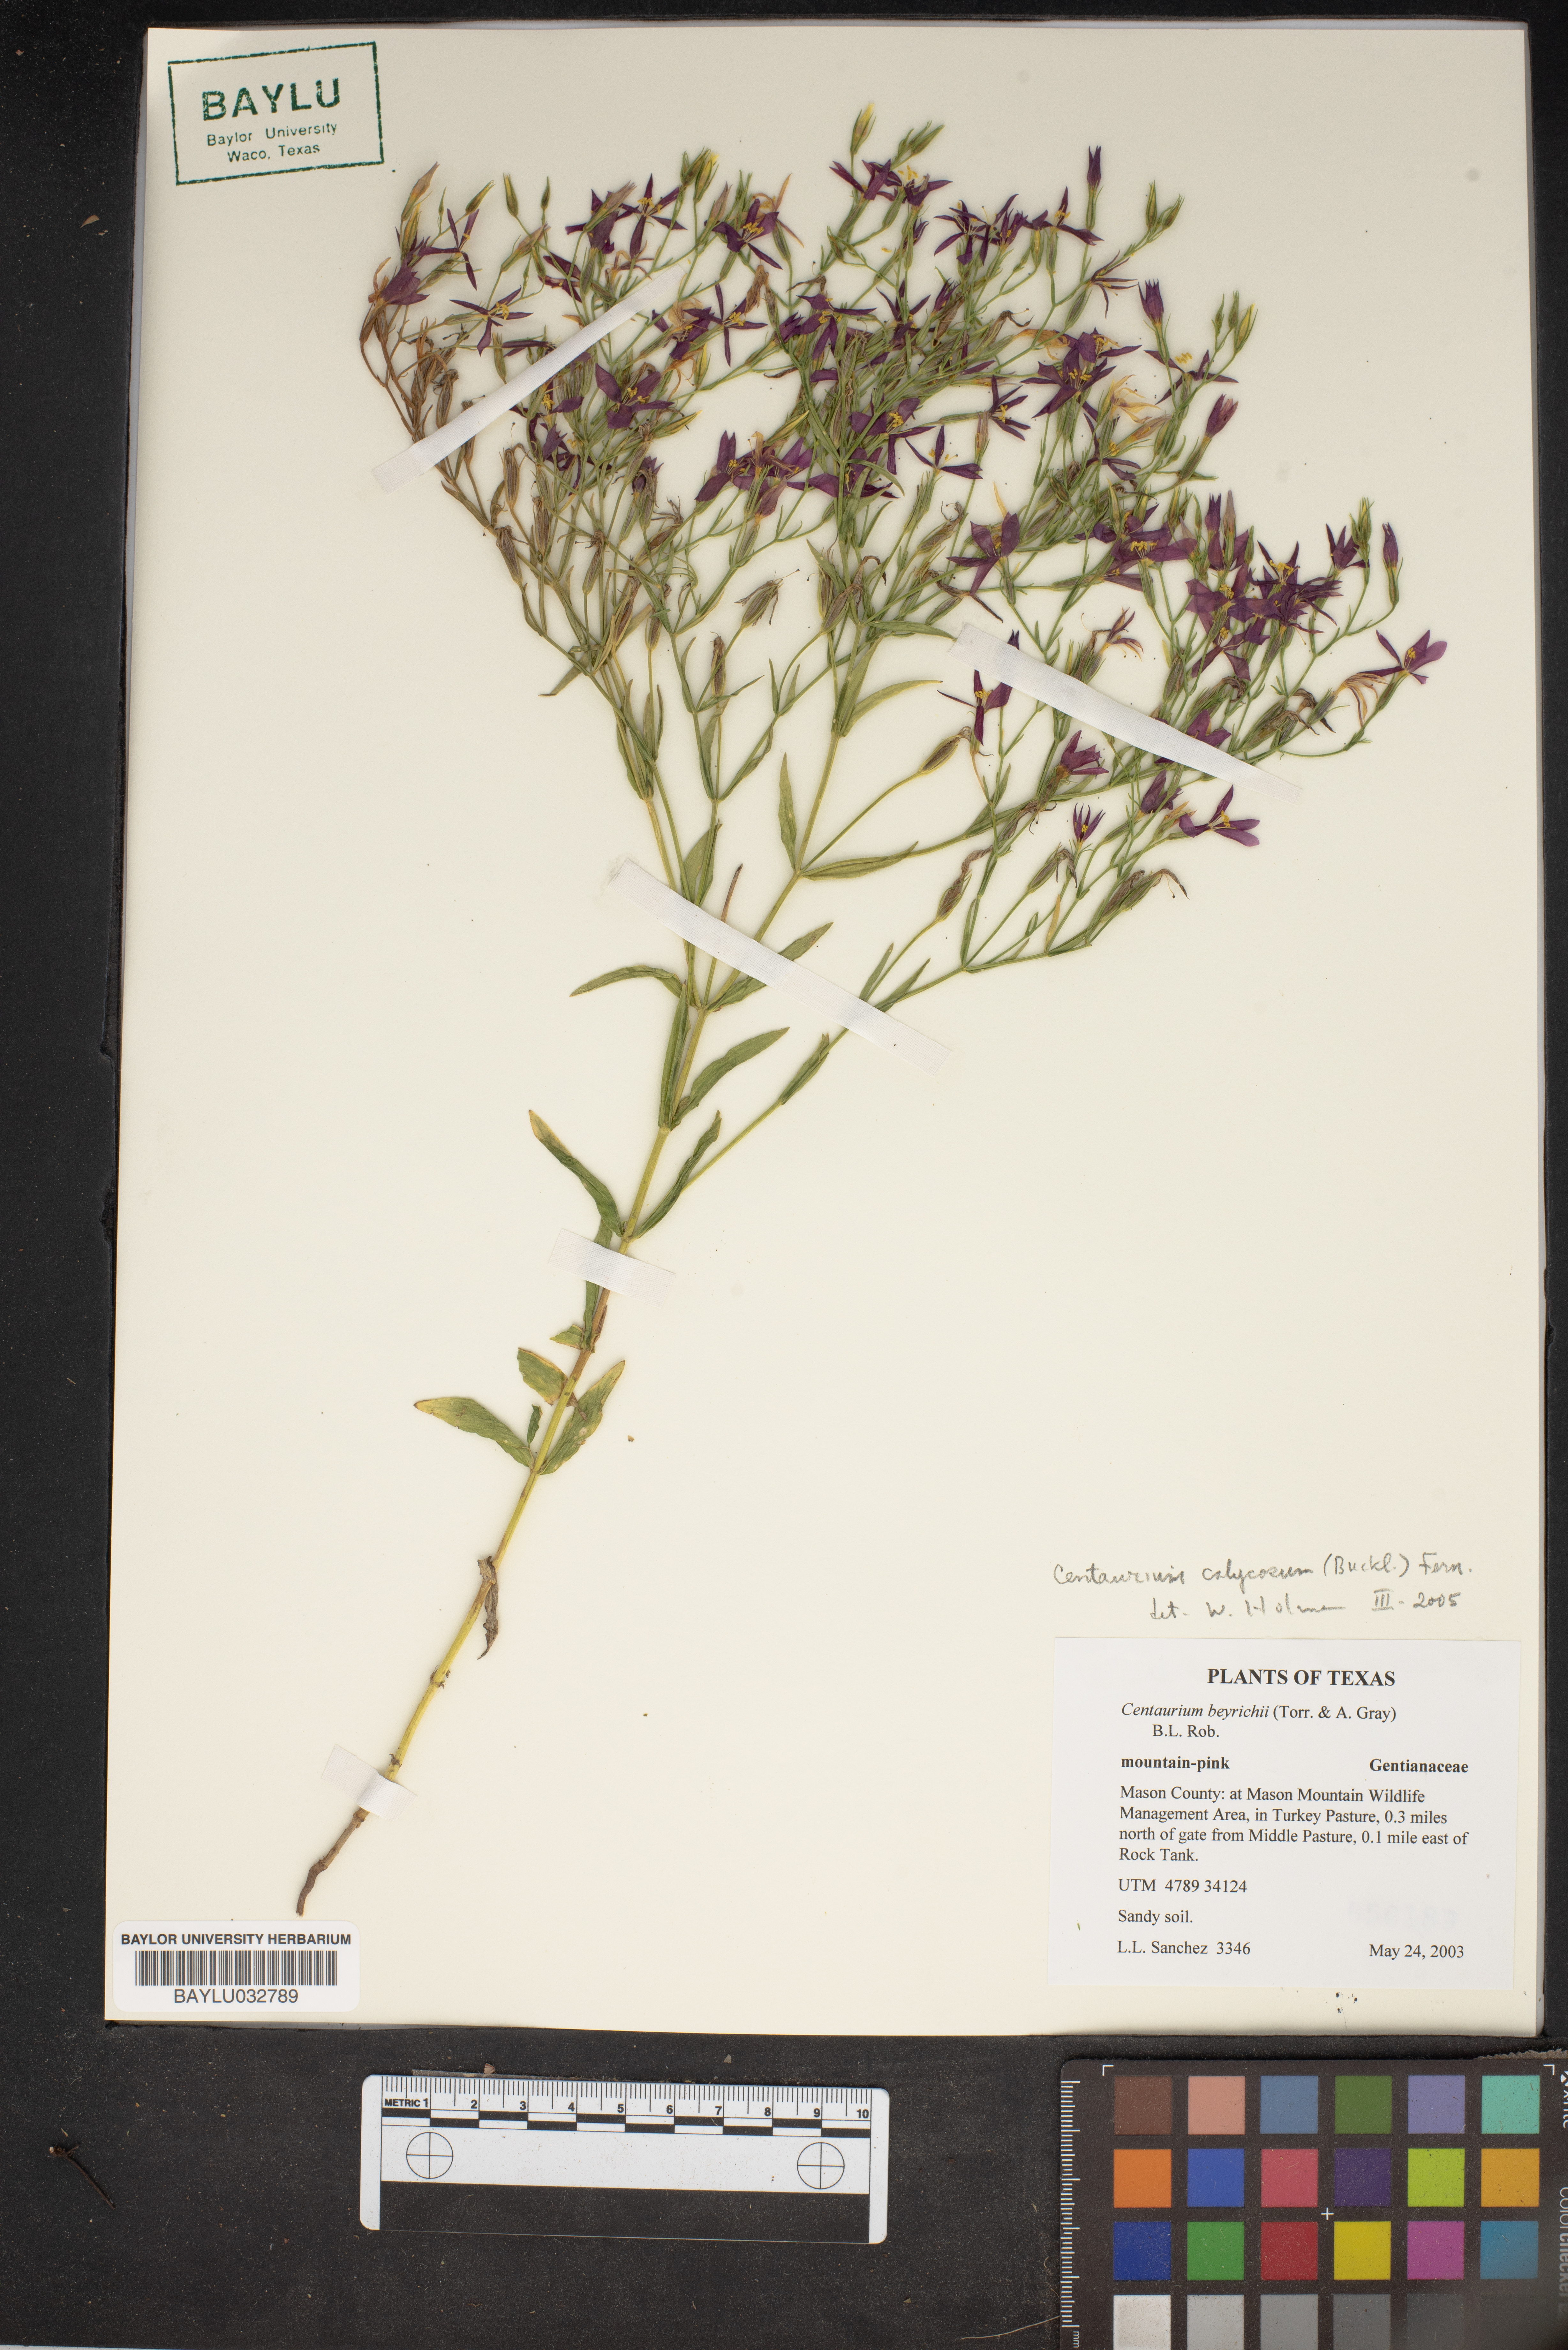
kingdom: Plantae
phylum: Tracheophyta
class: Magnoliopsida
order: Gentianales
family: Gentianaceae
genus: Zeltnera
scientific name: Zeltnera beyrichii
